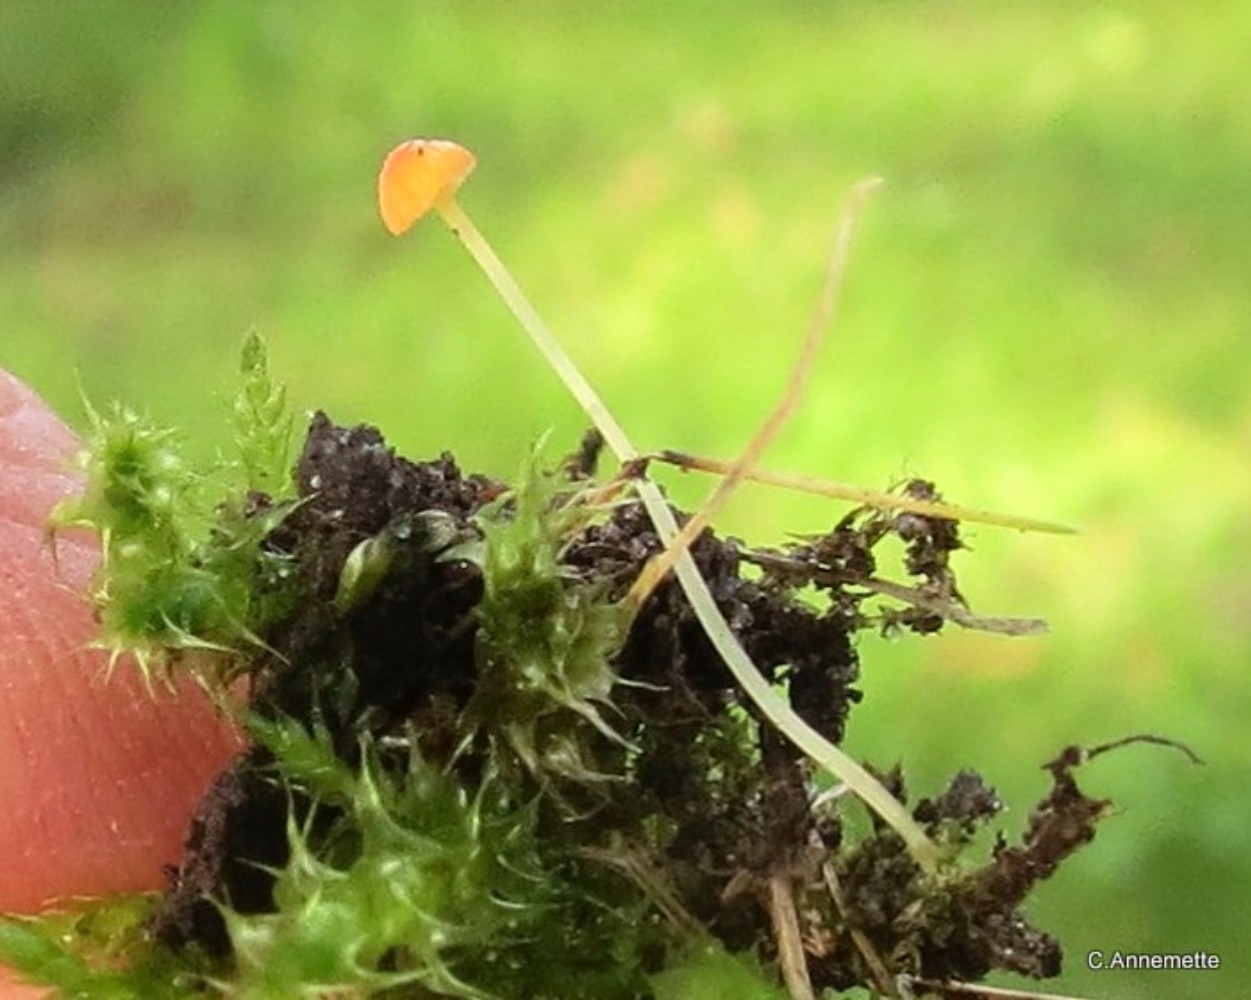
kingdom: Fungi
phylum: Basidiomycota
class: Agaricomycetes
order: Agaricales
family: Mycenaceae
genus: Mycena
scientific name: Mycena acicula
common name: orange huesvamp
